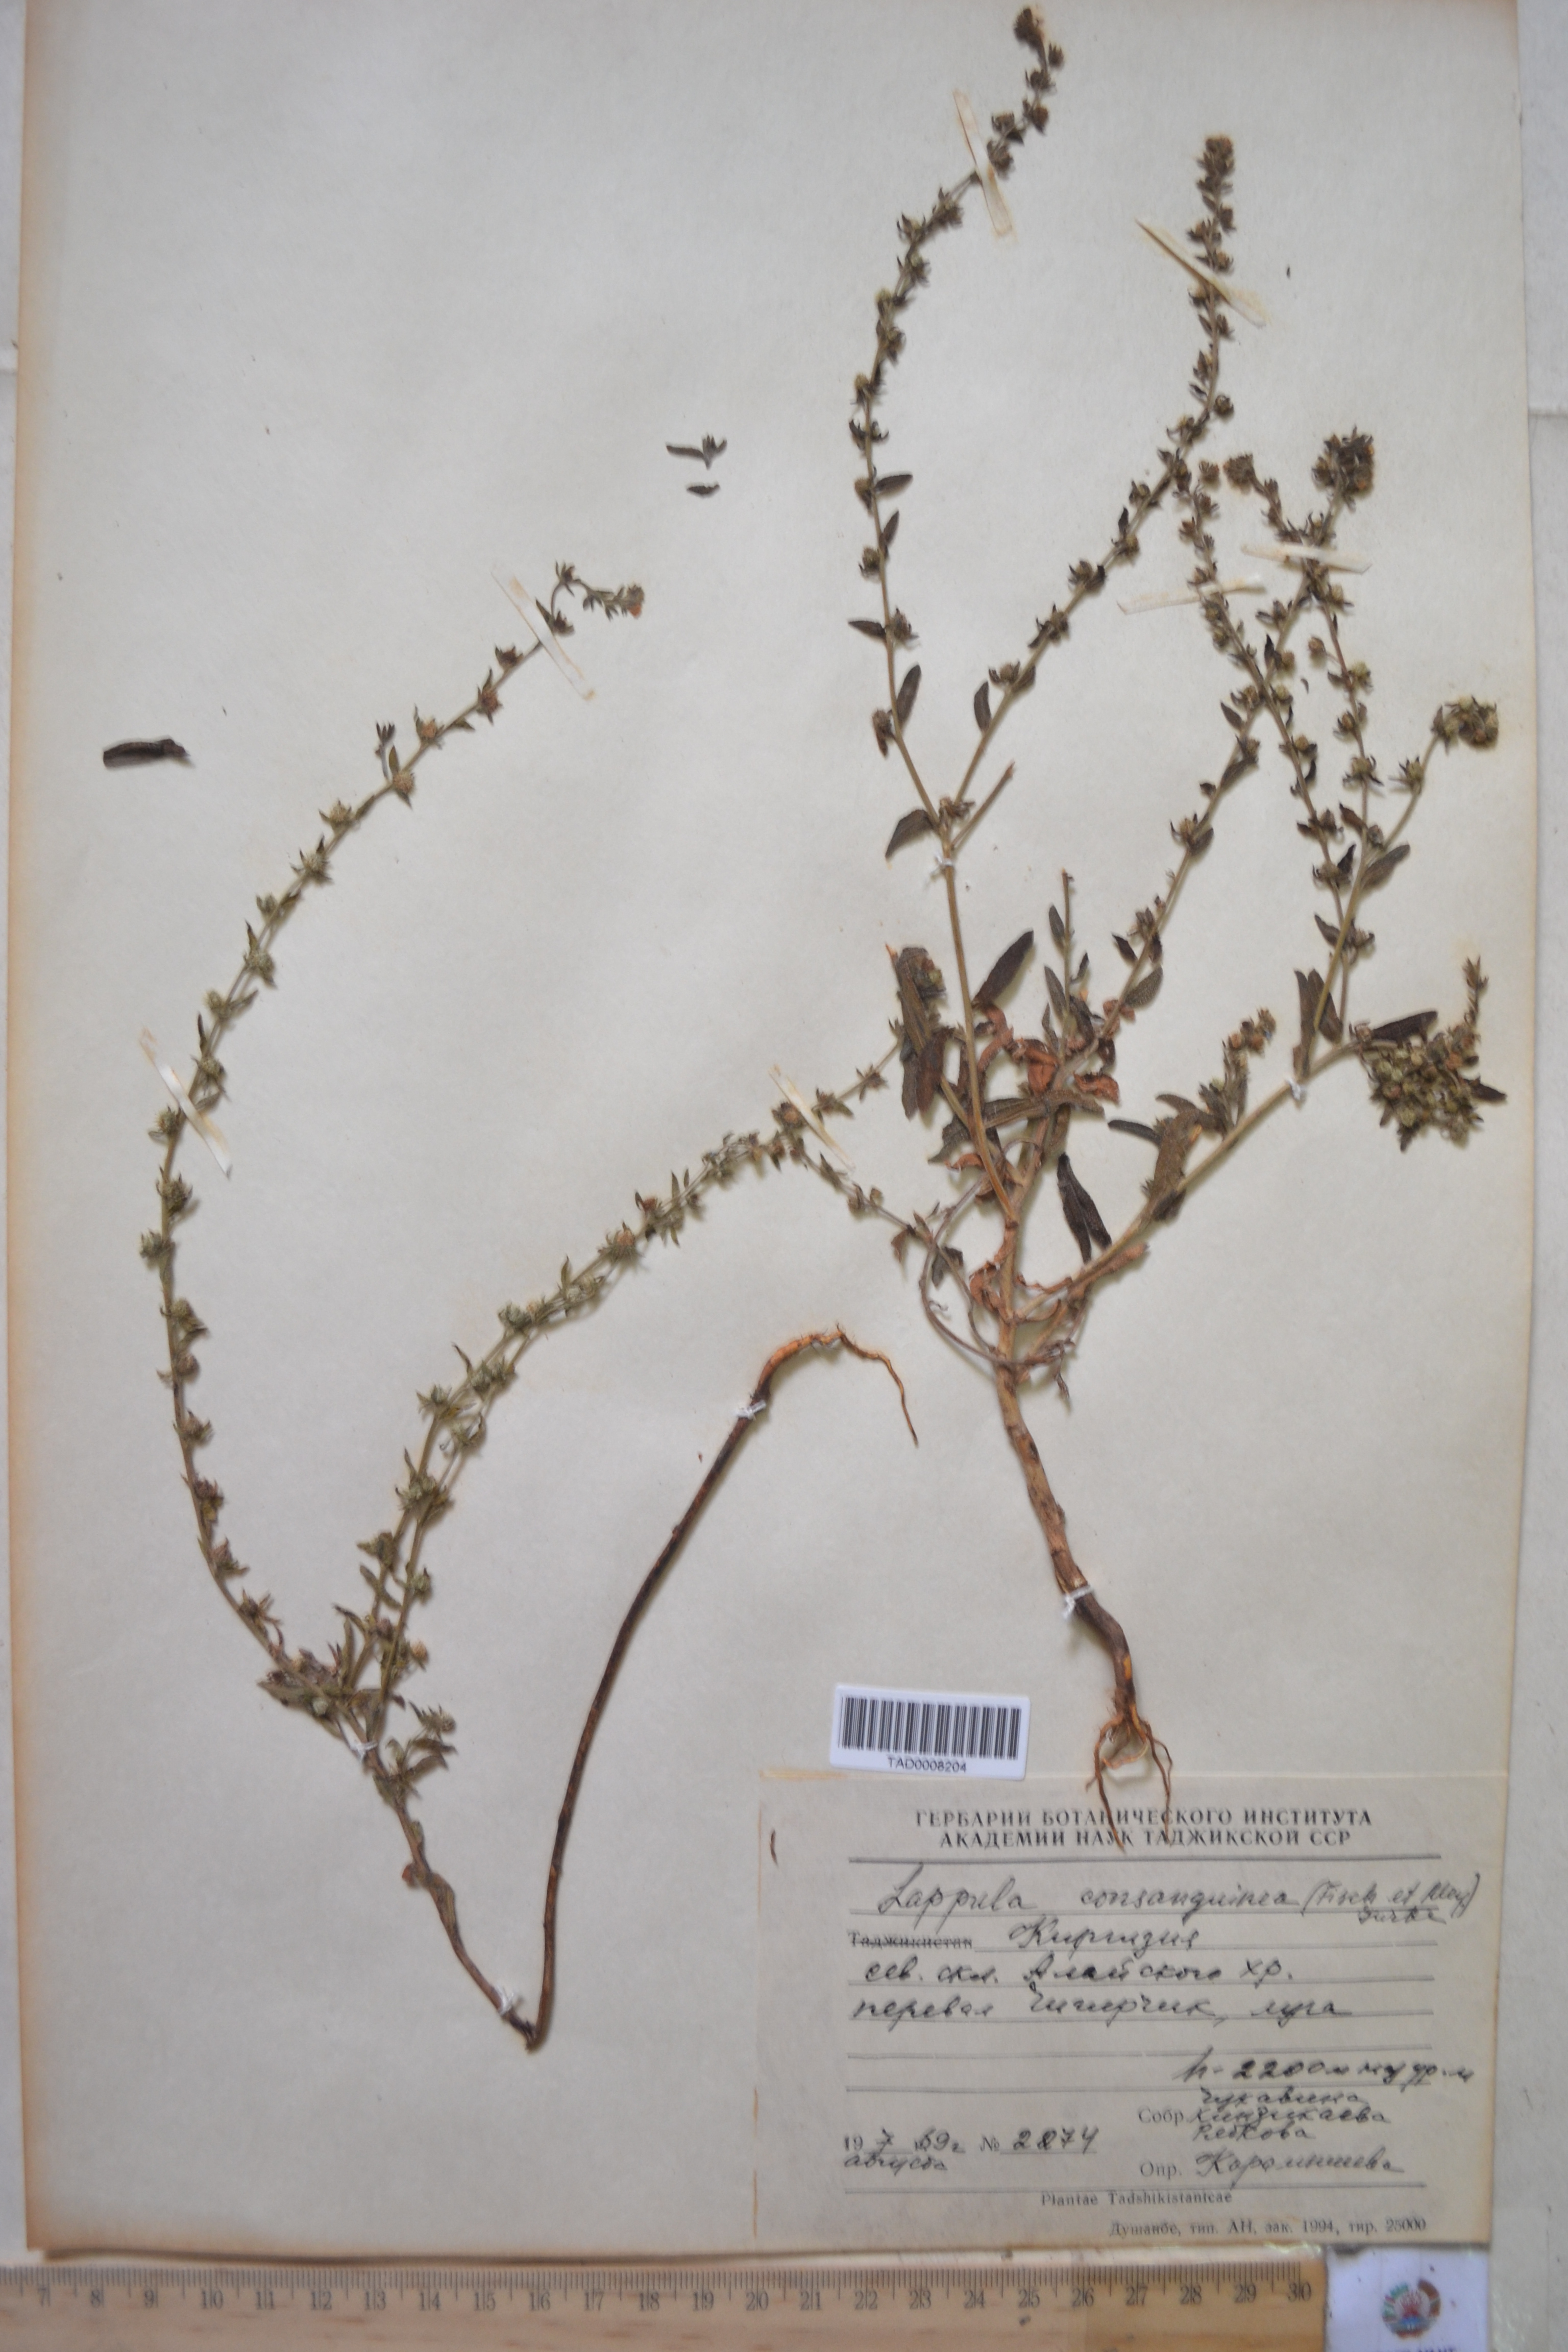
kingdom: Plantae
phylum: Tracheophyta
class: Magnoliopsida
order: Boraginales
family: Boraginaceae
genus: Lappula
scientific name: Lappula squarrosa
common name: European stickseed
